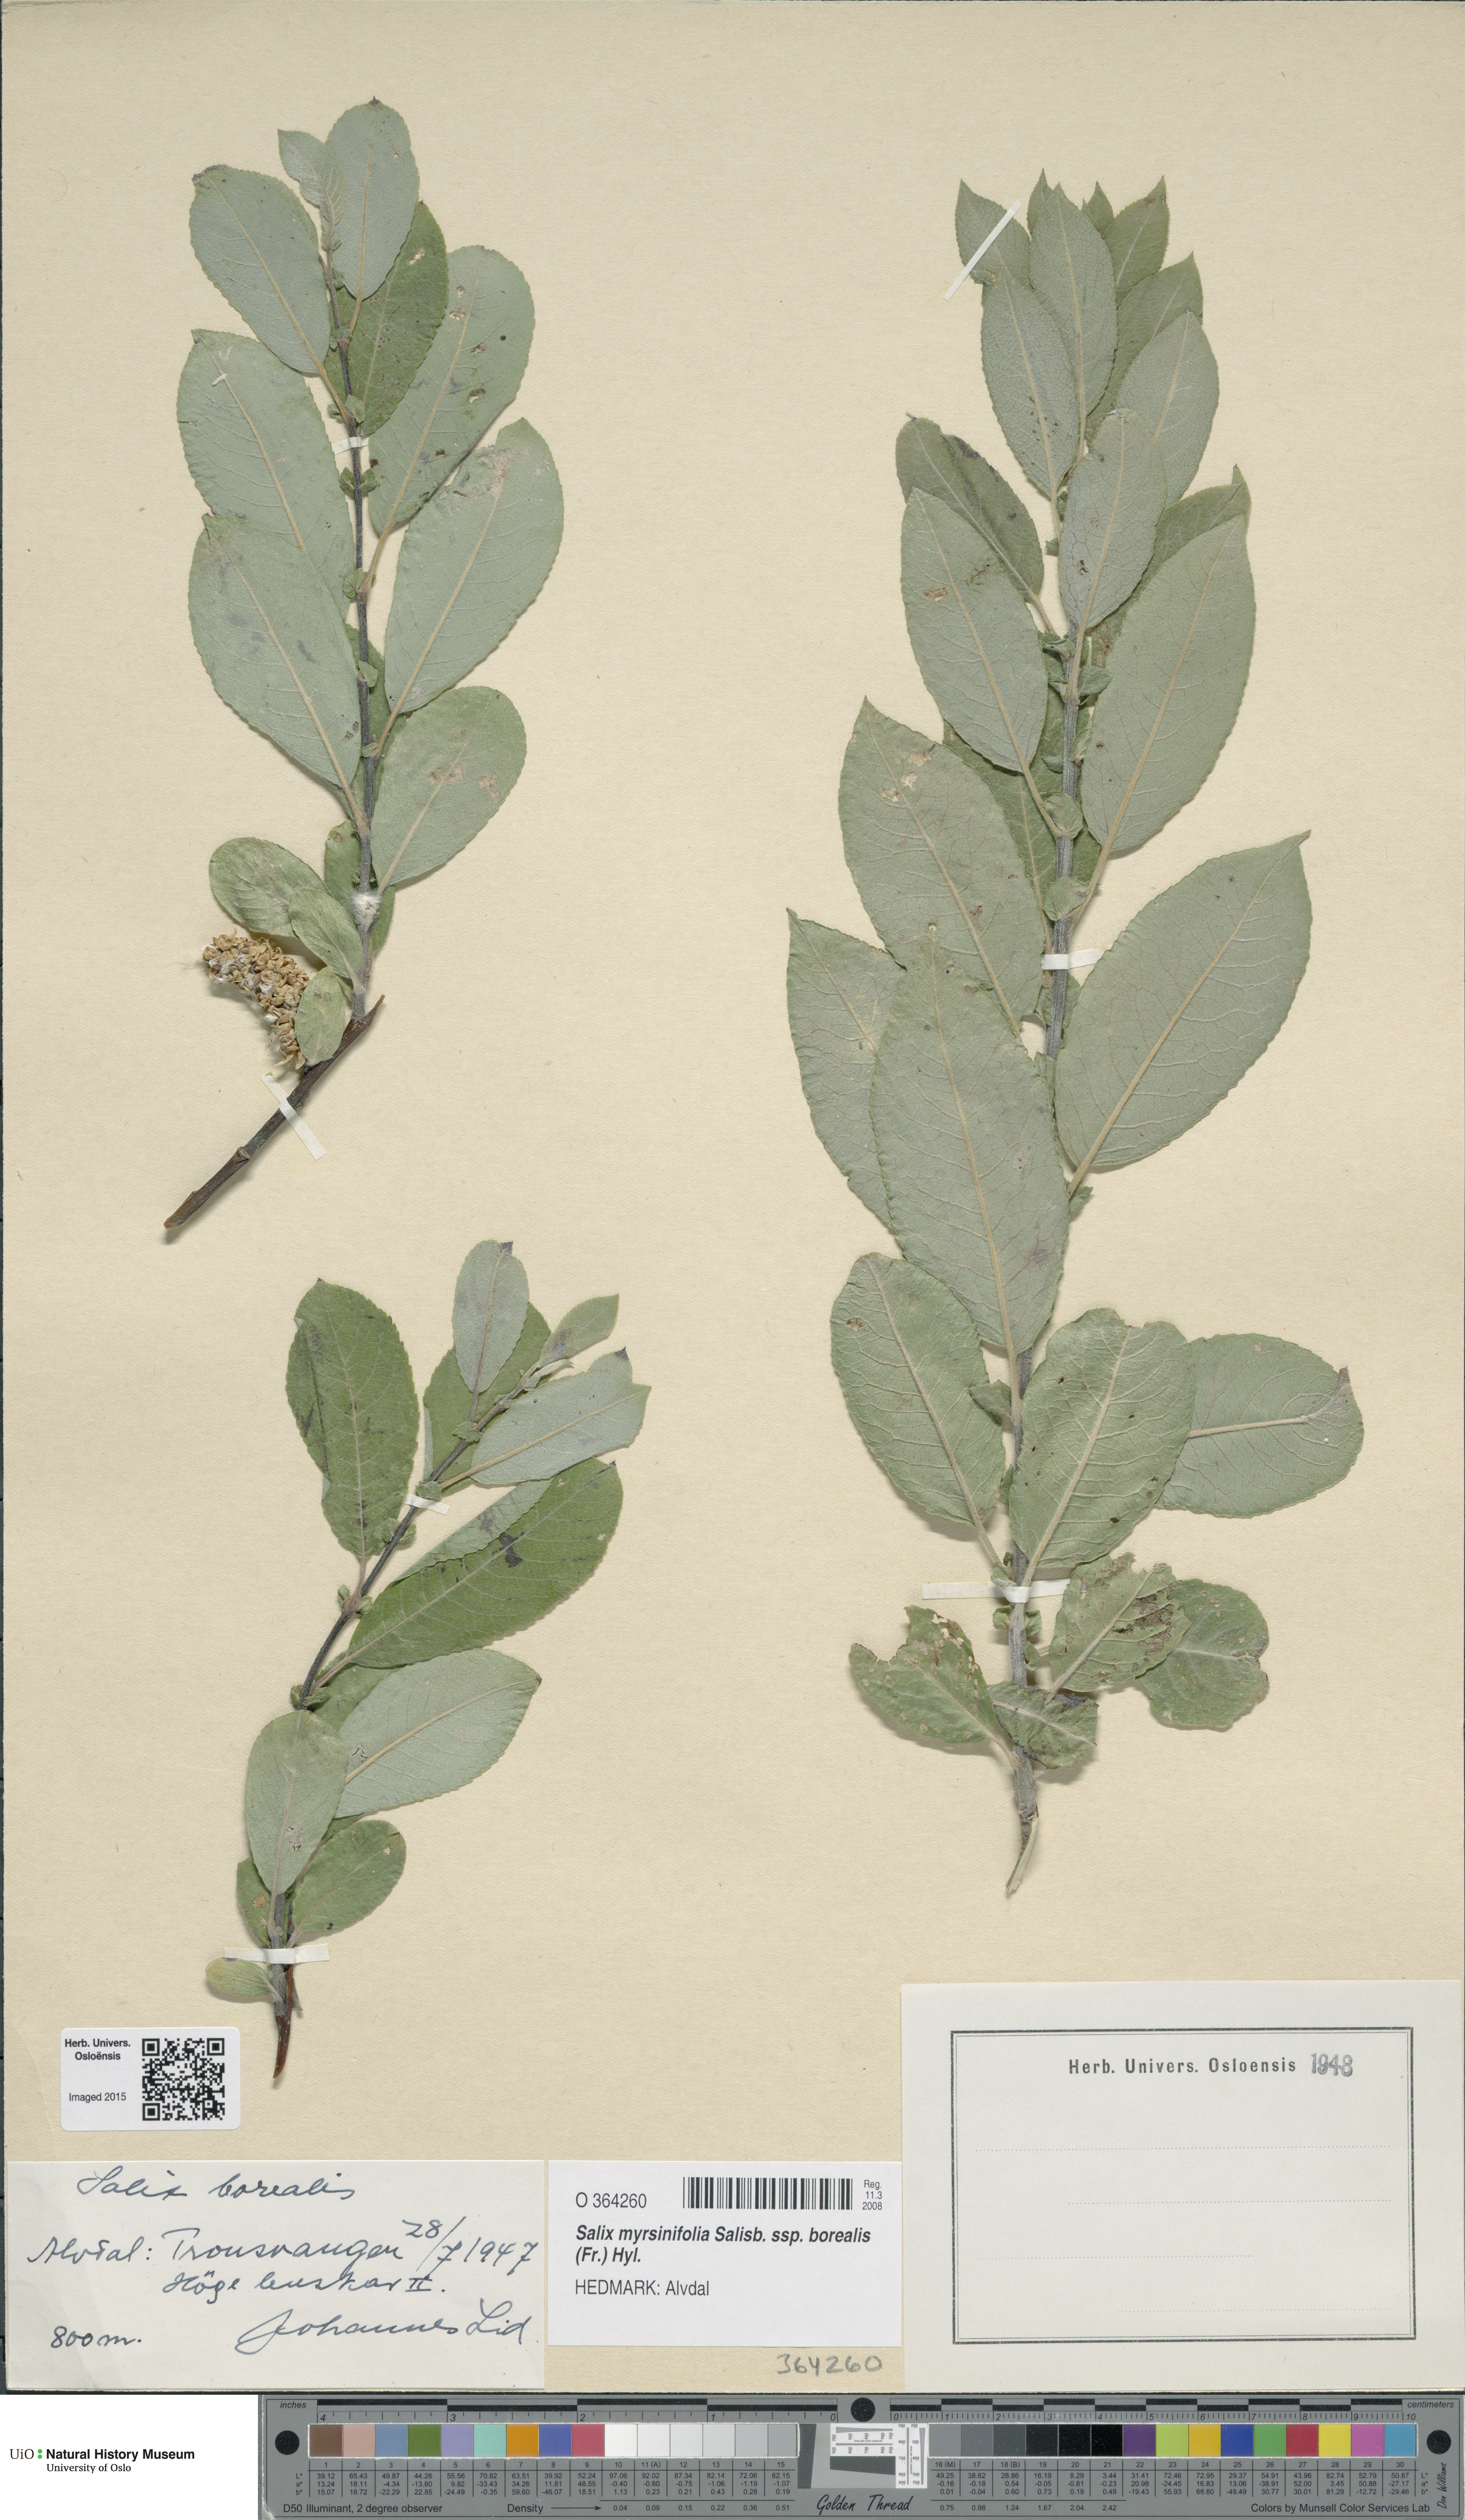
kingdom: Plantae
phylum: Tracheophyta
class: Magnoliopsida
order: Malpighiales
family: Salicaceae
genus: Salix
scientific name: Salix myrsinifolia
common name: Dark-leaved willow
